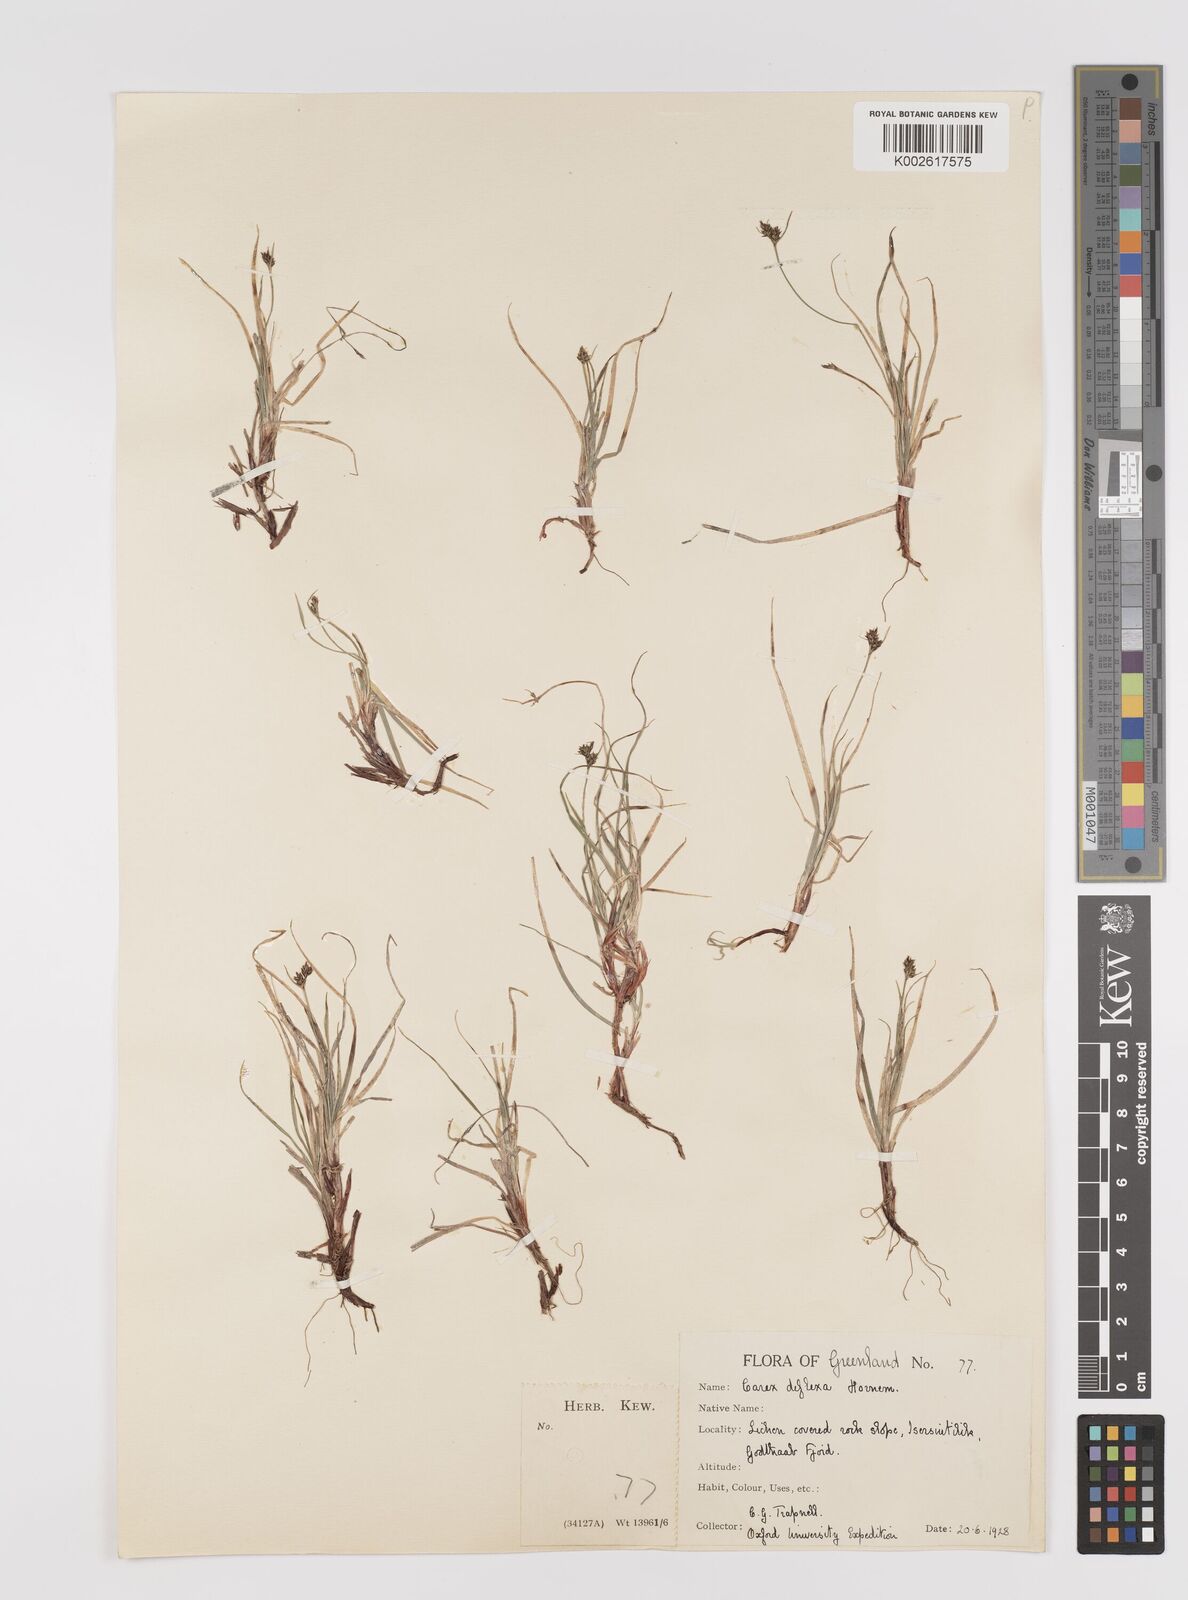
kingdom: Plantae
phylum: Tracheophyta
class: Liliopsida
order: Poales
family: Cyperaceae
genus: Carex
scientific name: Carex deflexa
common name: Bent northern sedge
